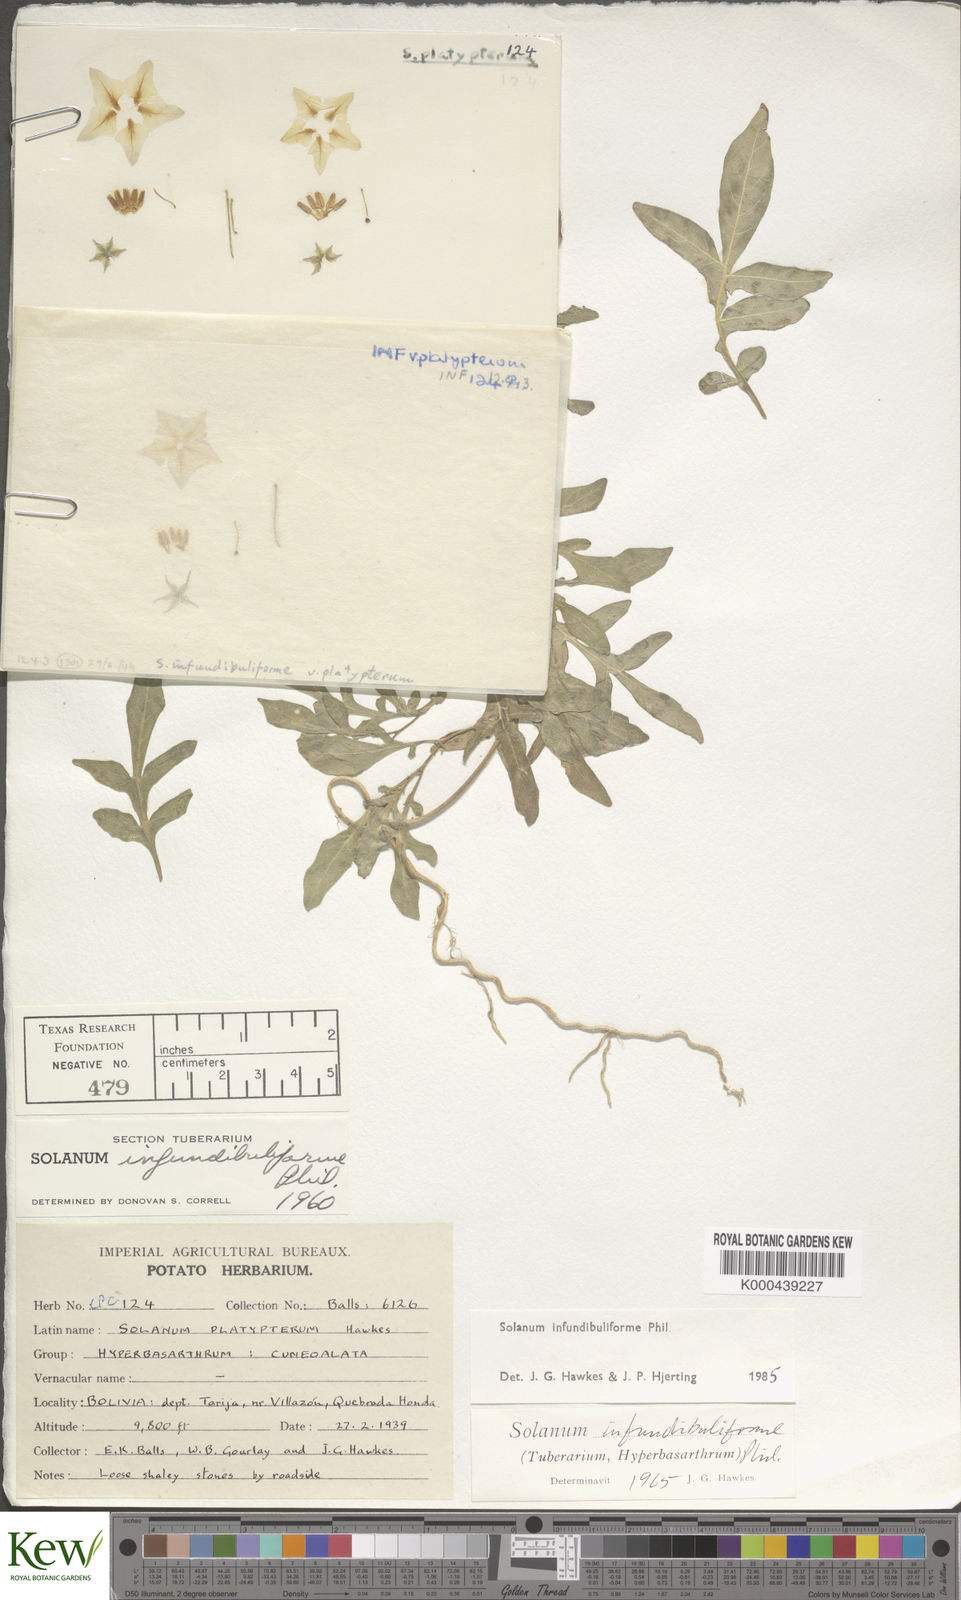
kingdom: Plantae
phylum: Tracheophyta
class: Magnoliopsida
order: Solanales
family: Solanaceae
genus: Solanum
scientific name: Solanum infundibuliforme
